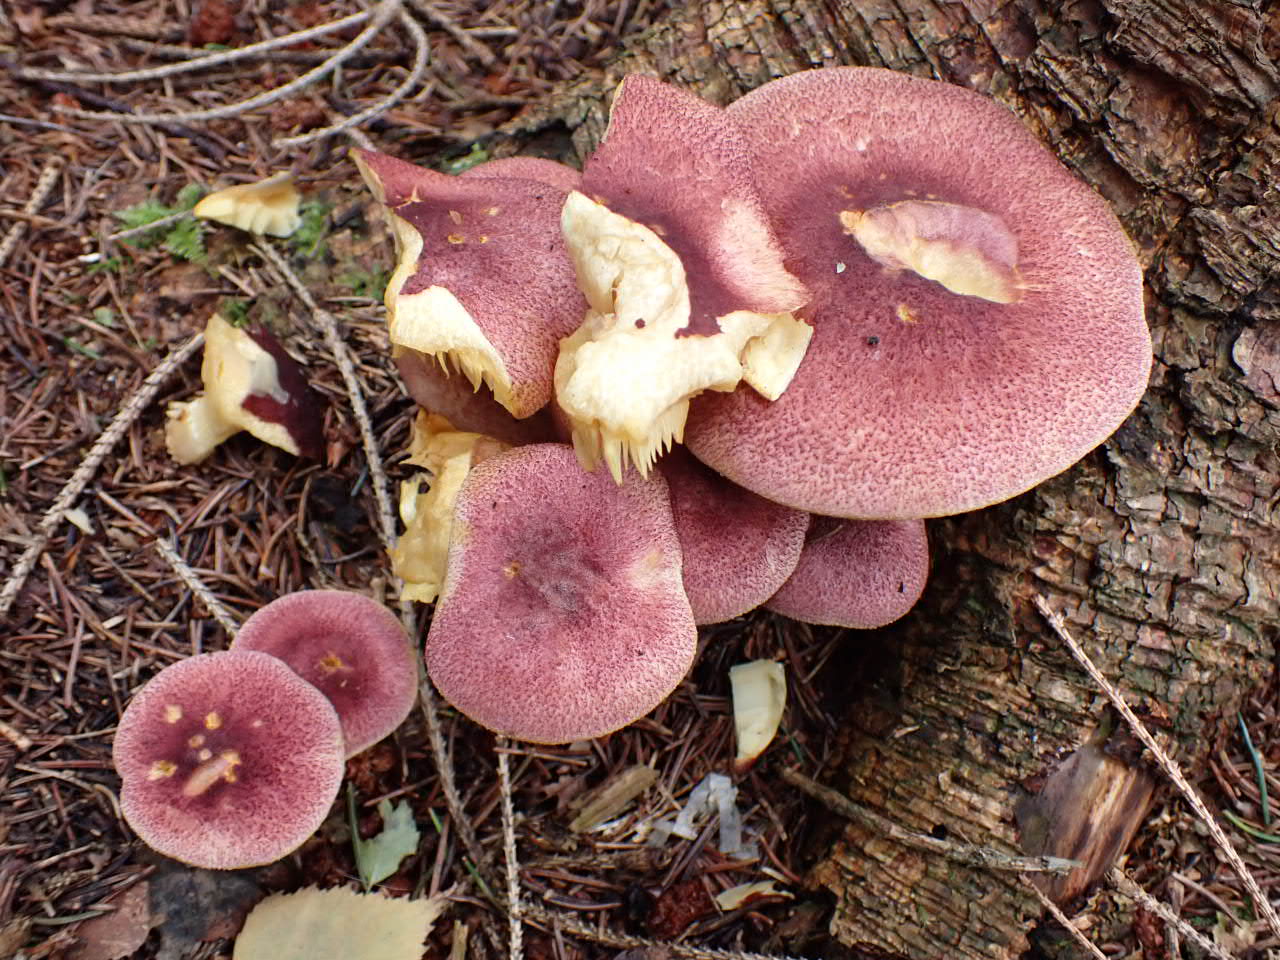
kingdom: Fungi
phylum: Basidiomycota
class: Agaricomycetes
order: Agaricales
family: Tricholomataceae
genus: Tricholomopsis
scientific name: Tricholomopsis rutilans
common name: purpur-væbnerhat
